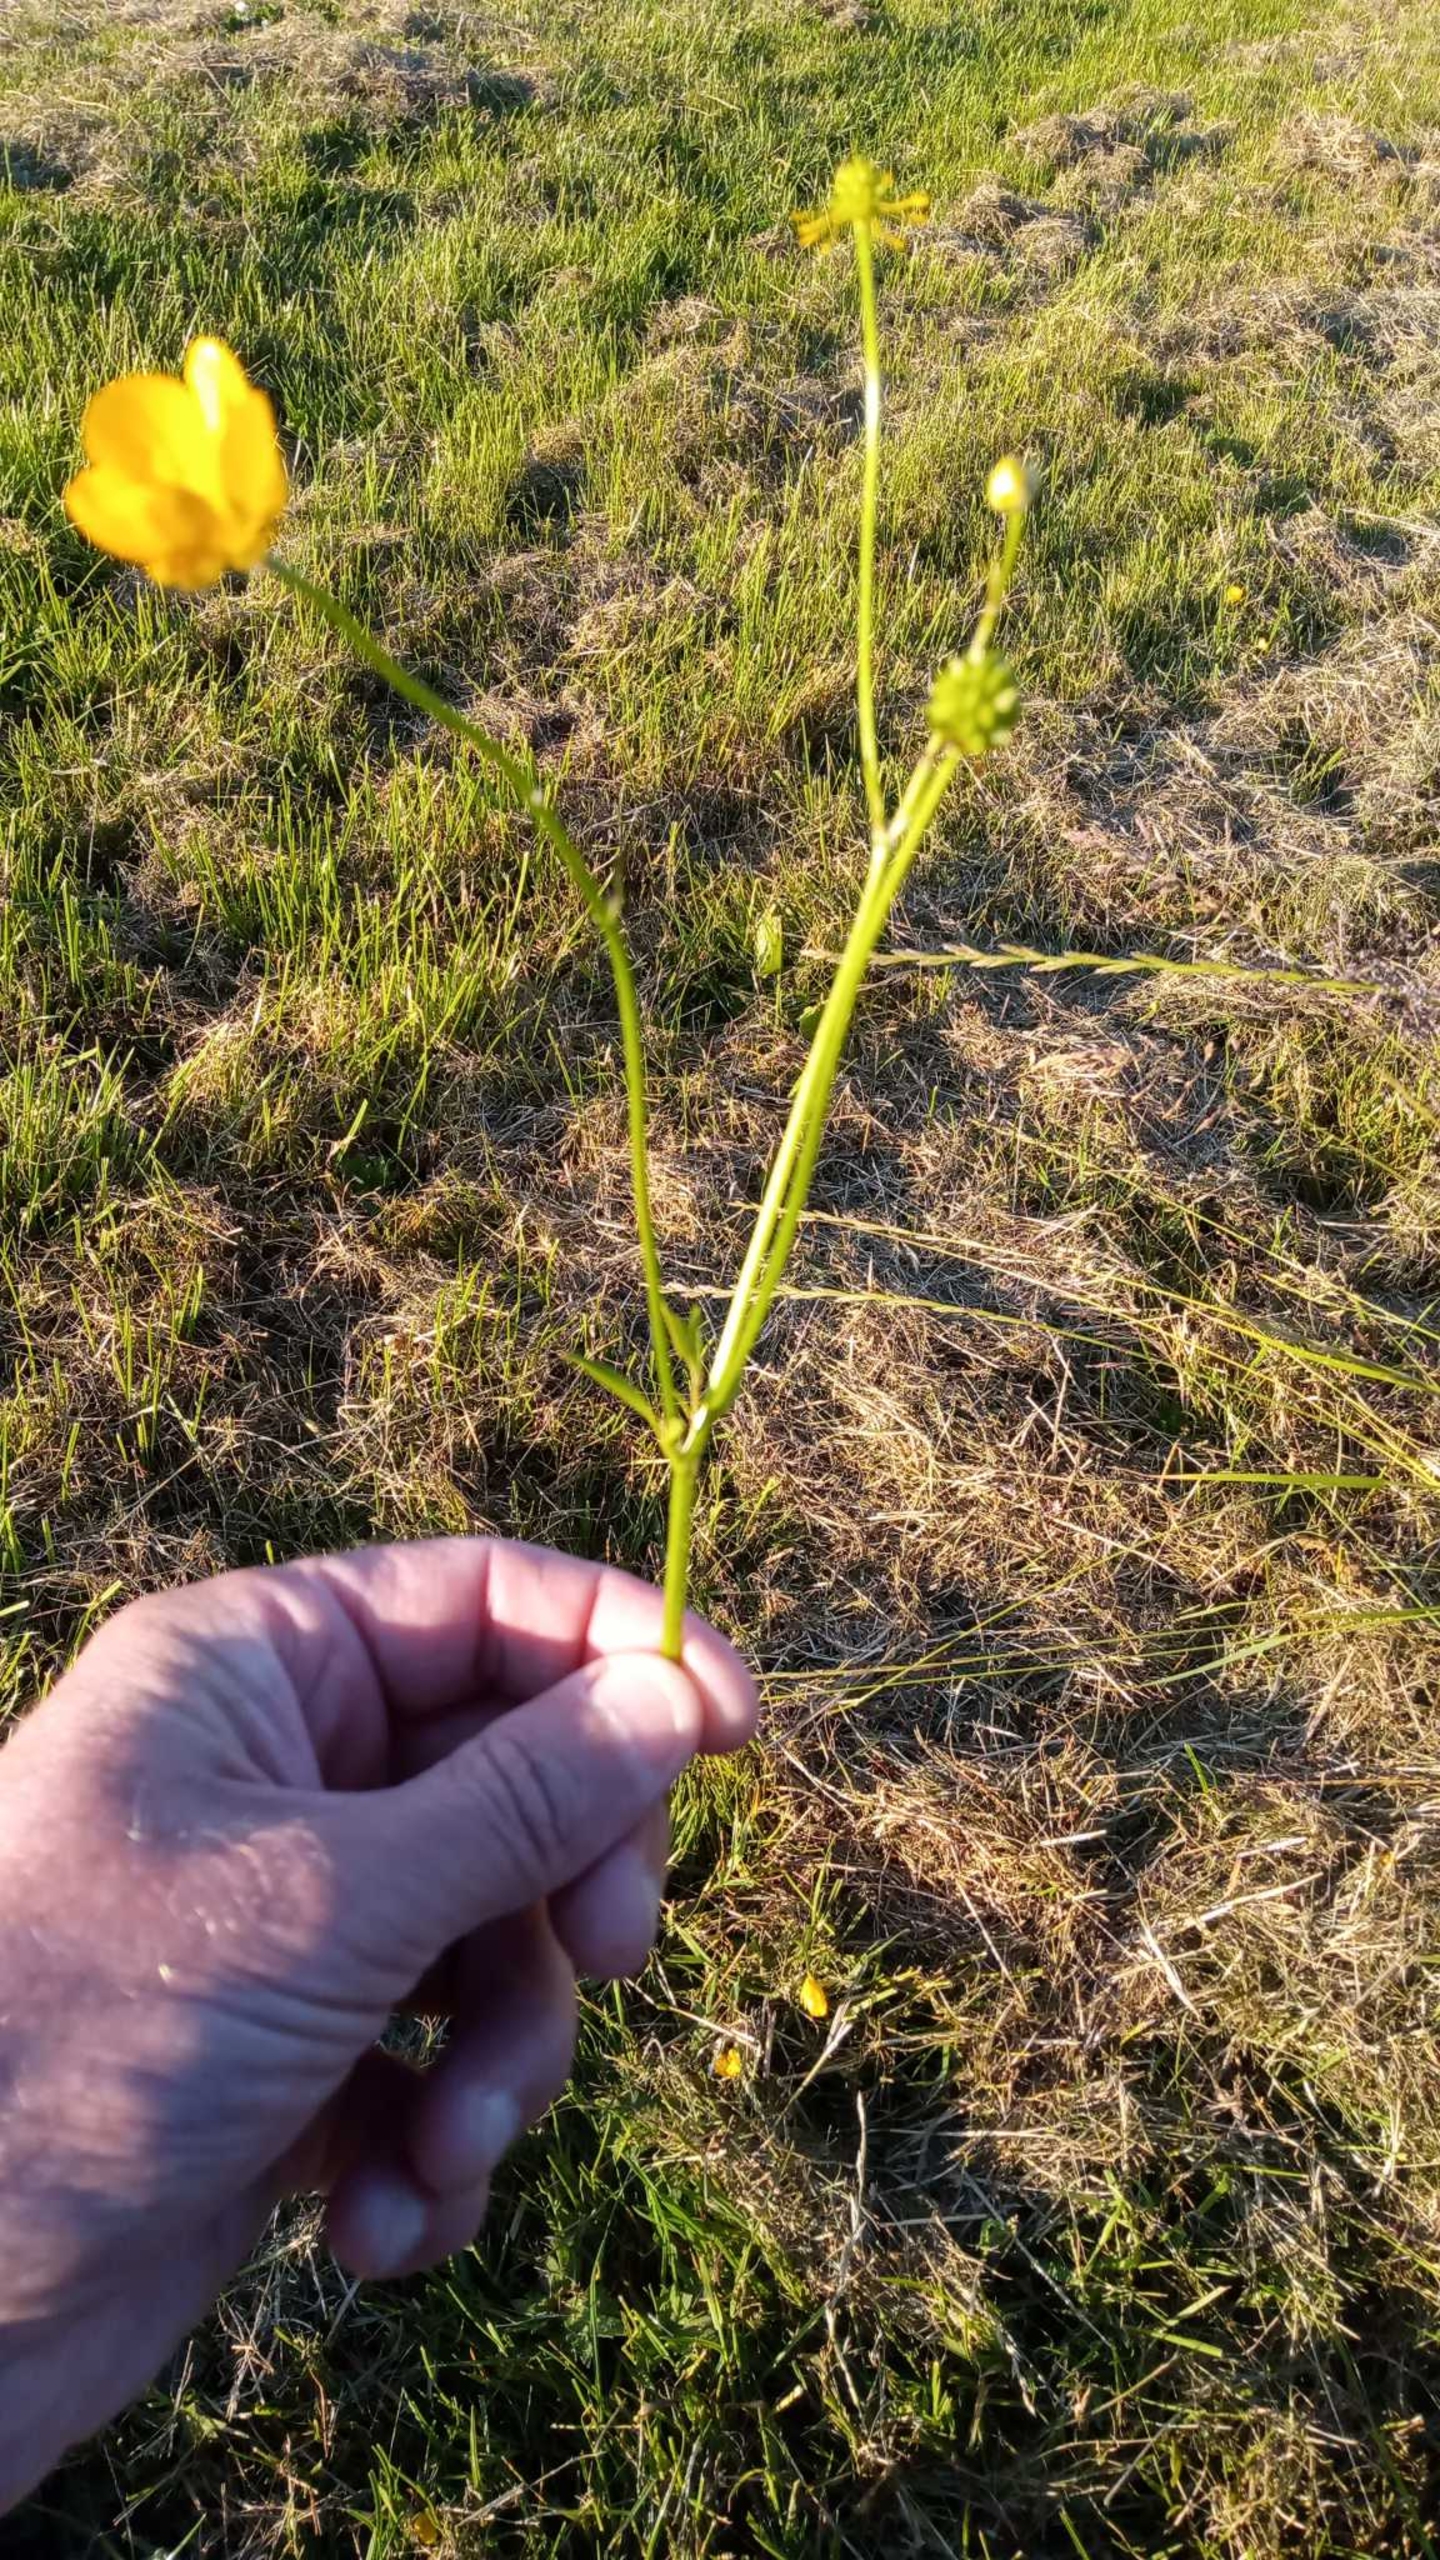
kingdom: Plantae
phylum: Tracheophyta
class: Magnoliopsida
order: Ranunculales
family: Ranunculaceae
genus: Ranunculus
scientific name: Ranunculus repens
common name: Lav ranunkel
